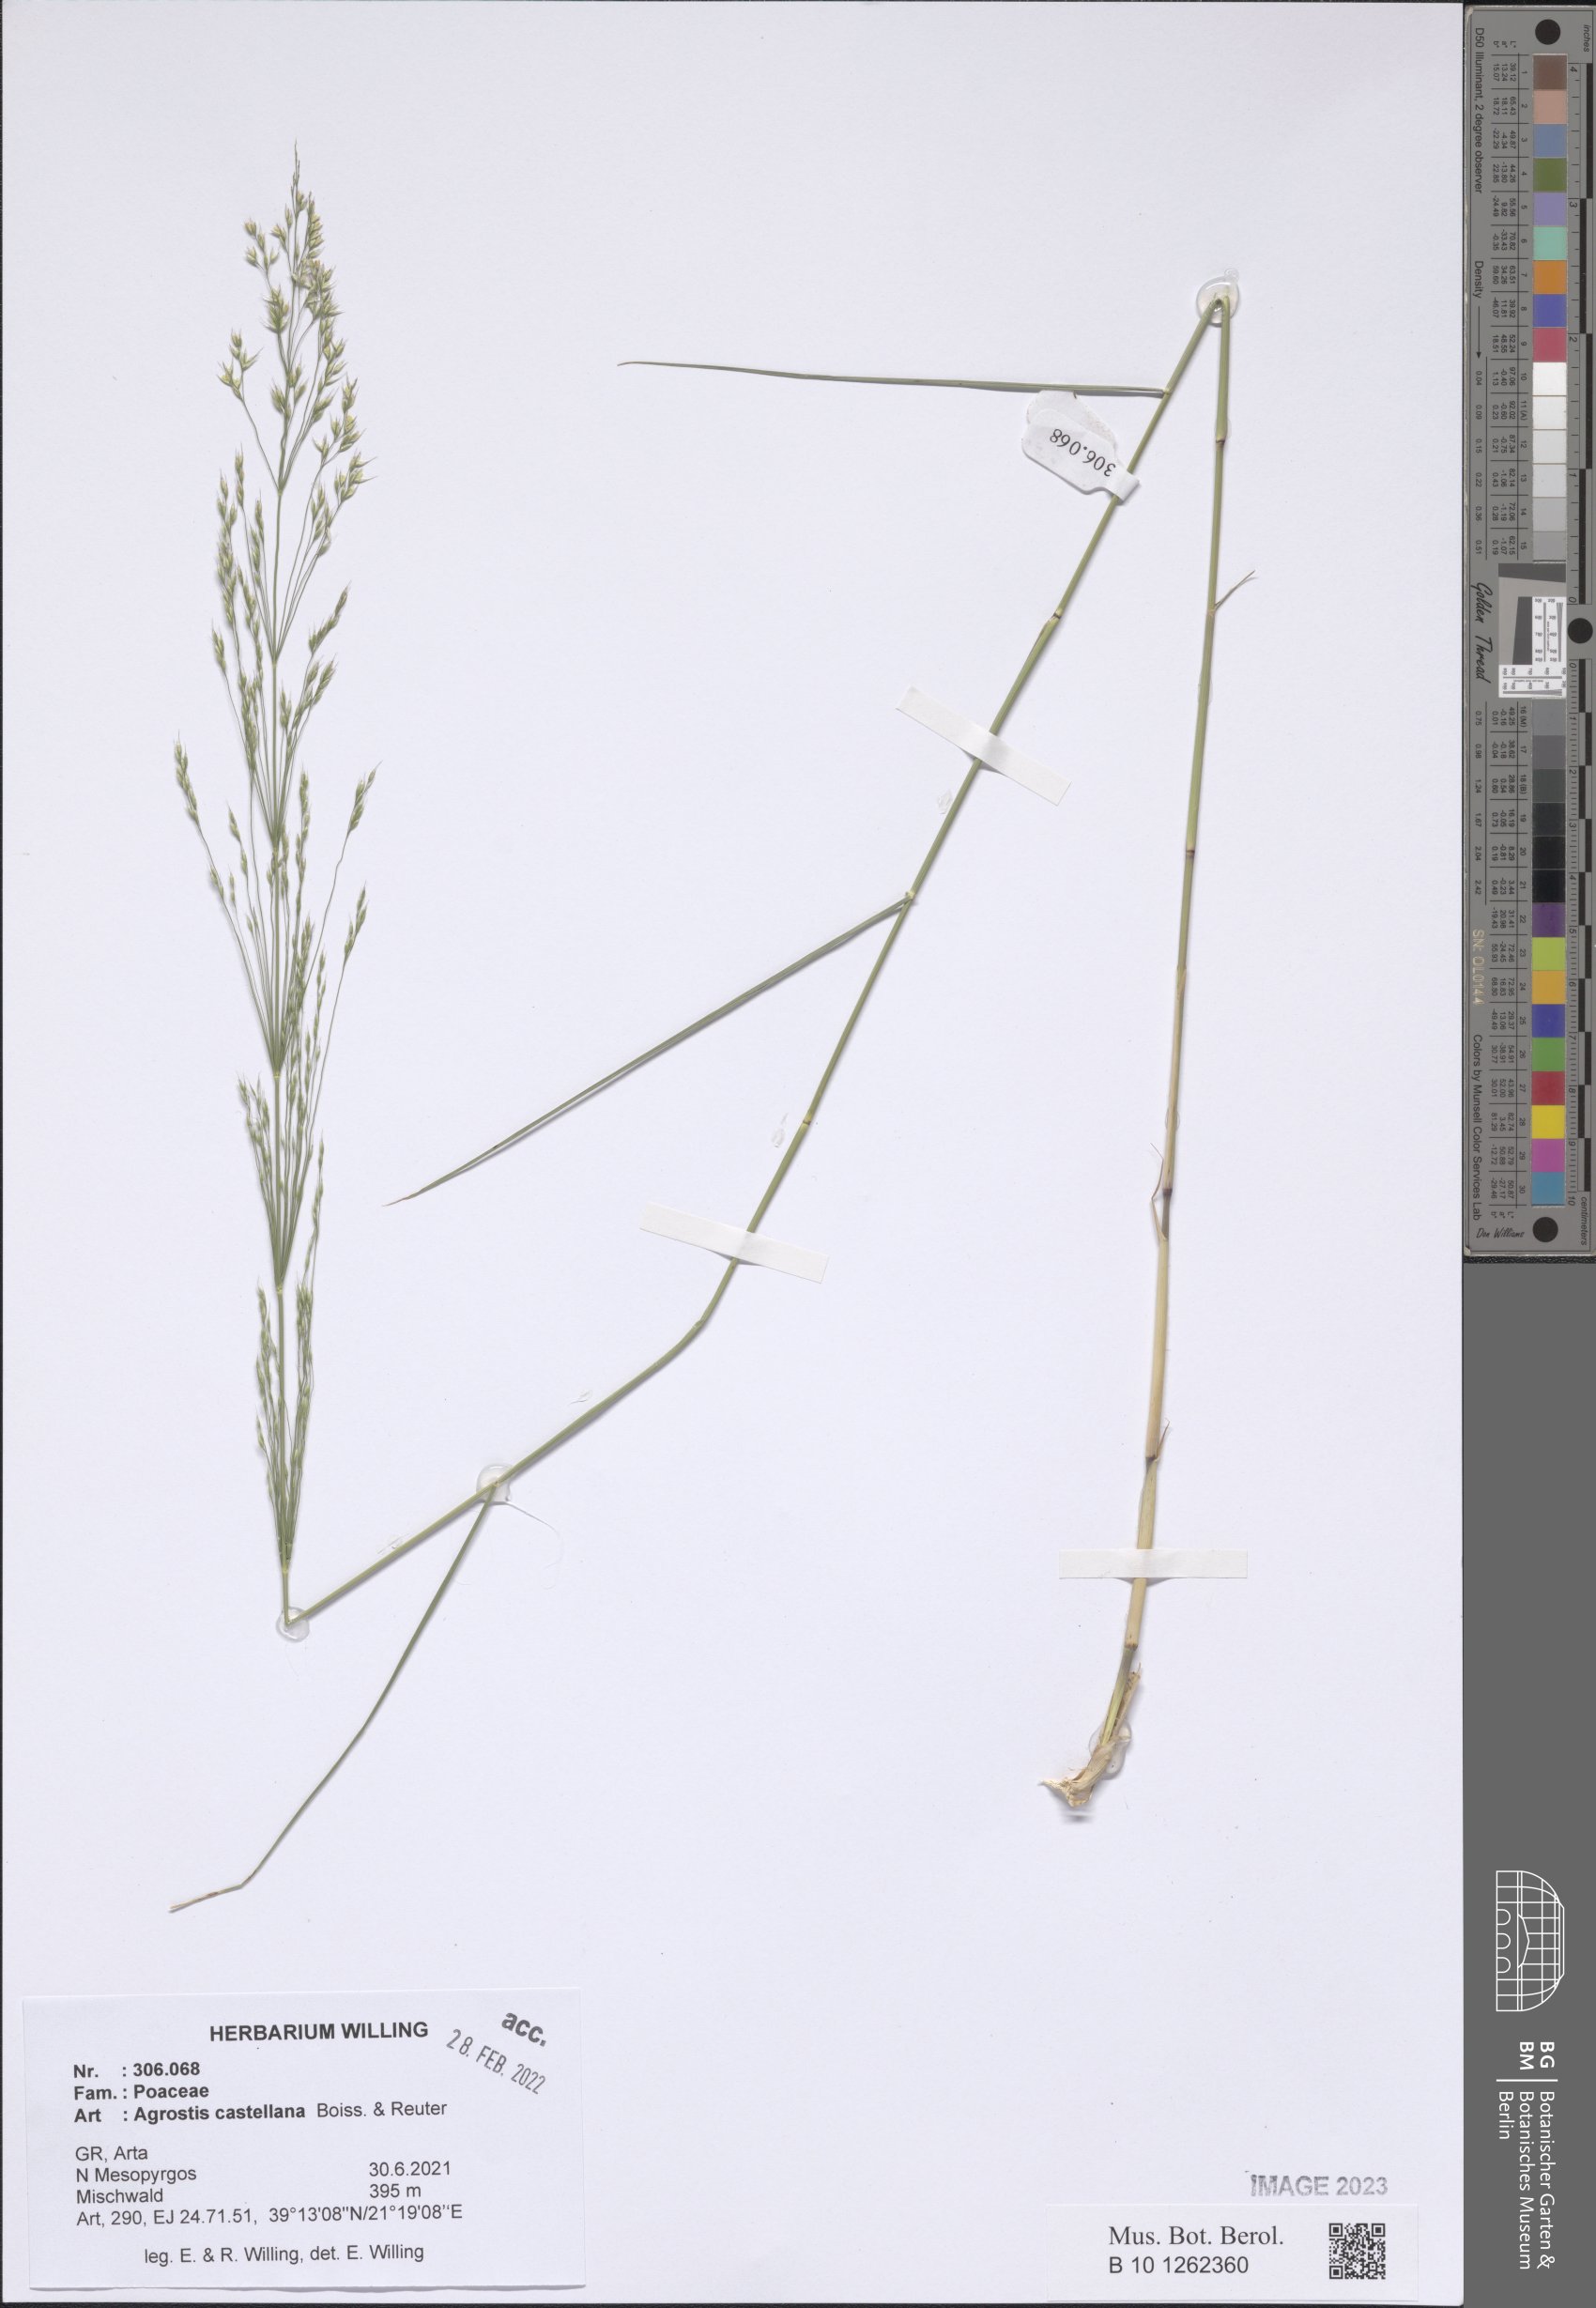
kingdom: Plantae
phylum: Tracheophyta
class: Liliopsida
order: Poales
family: Poaceae
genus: Agrostis
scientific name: Agrostis castellana
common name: Highland bent
